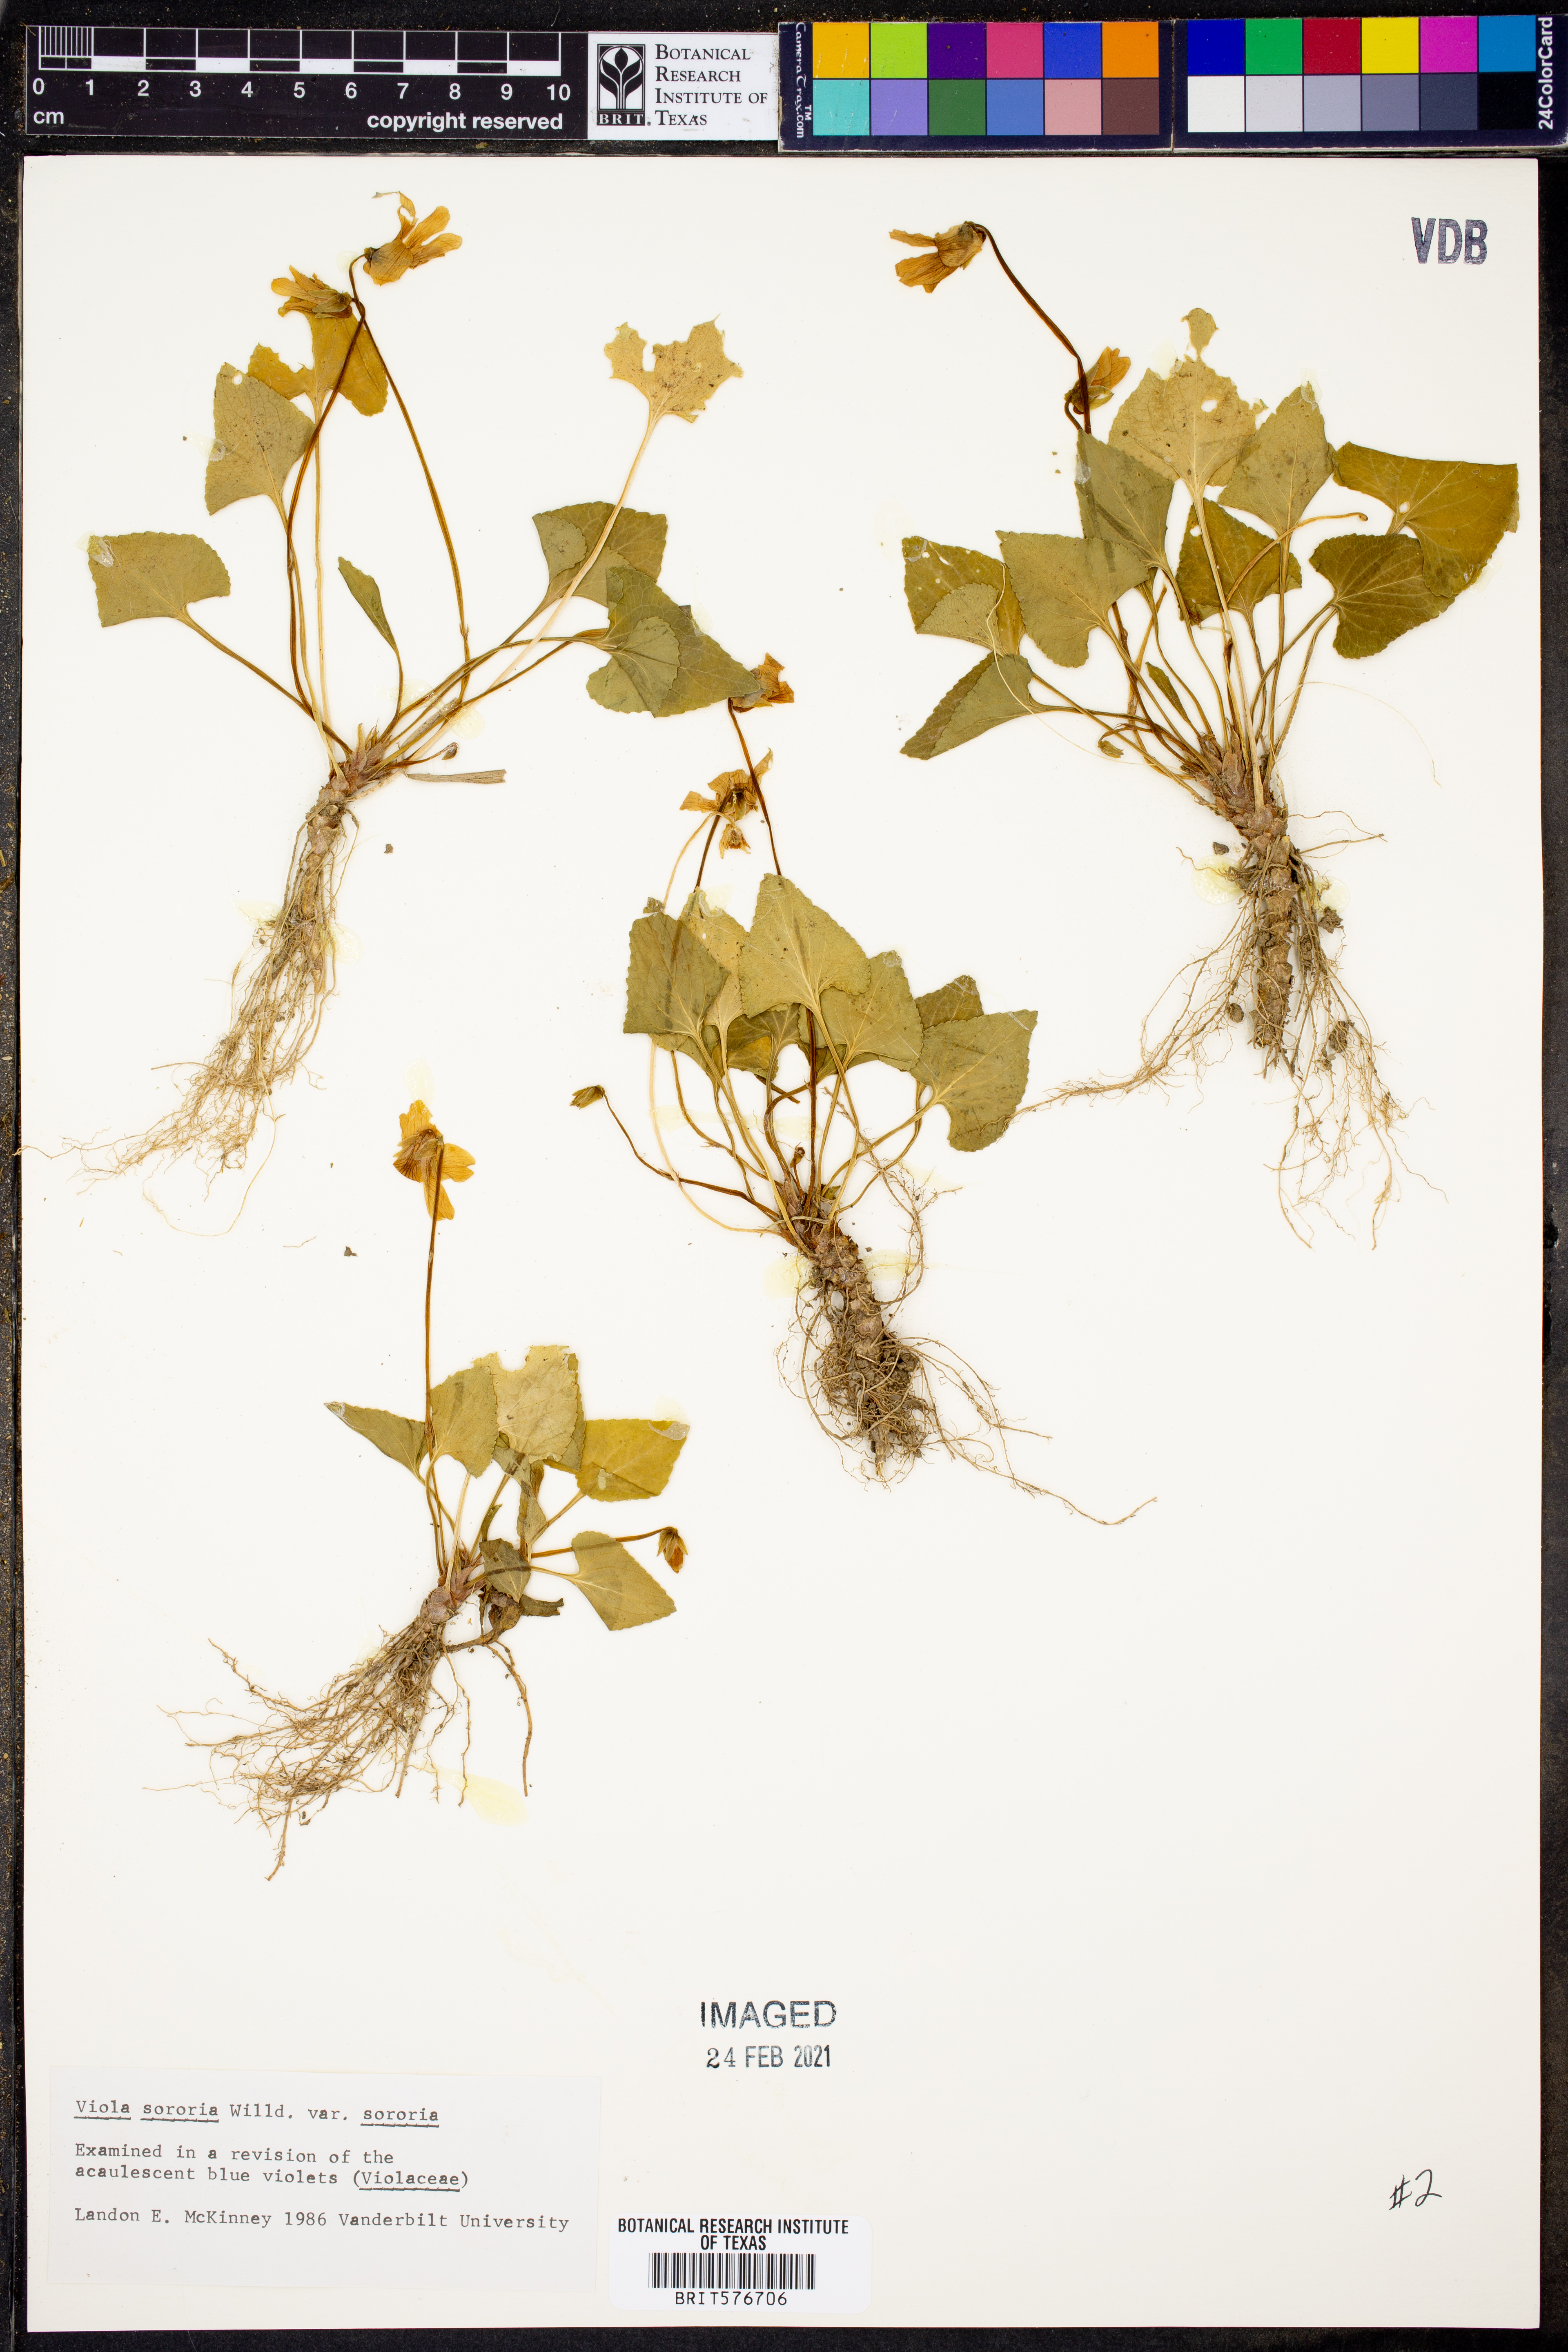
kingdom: Plantae
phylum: Tracheophyta
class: Magnoliopsida
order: Malpighiales
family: Violaceae
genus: Viola
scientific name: Viola sororia
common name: Dooryard violet
